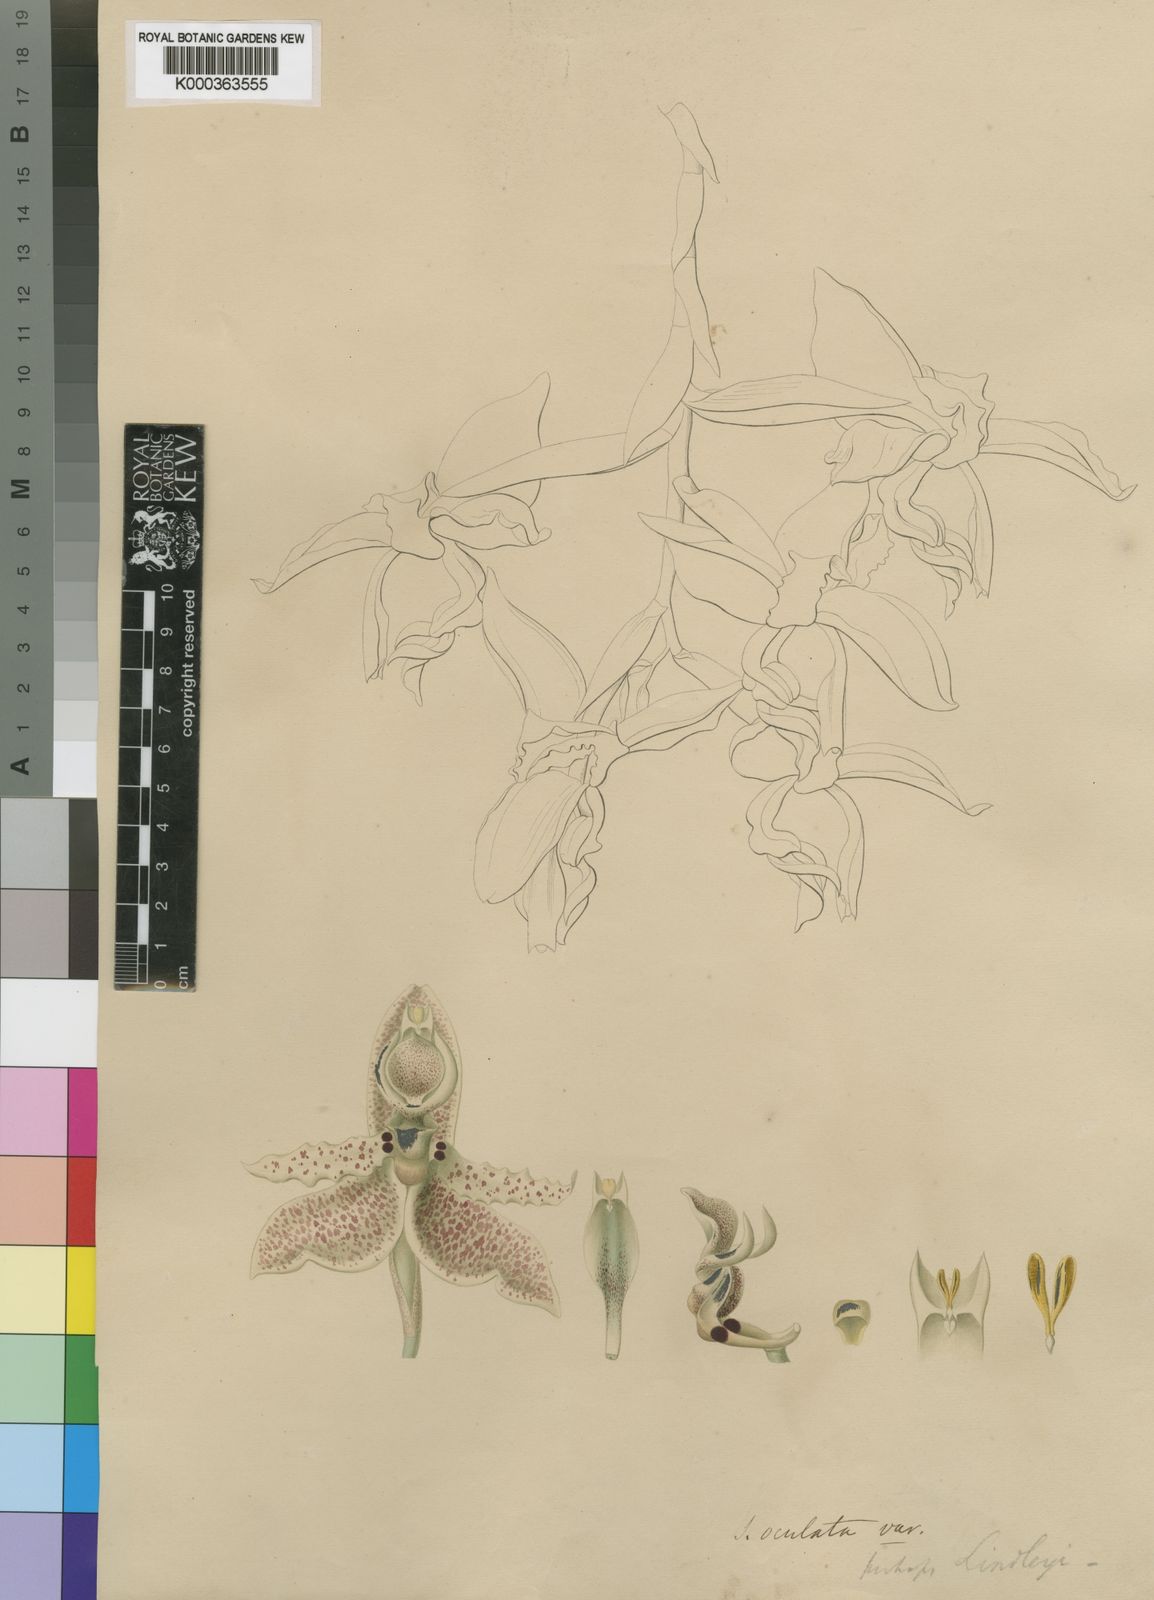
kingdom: Plantae
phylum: Tracheophyta
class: Liliopsida
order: Asparagales
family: Orchidaceae
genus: Stanhopea
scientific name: Stanhopea oculata
